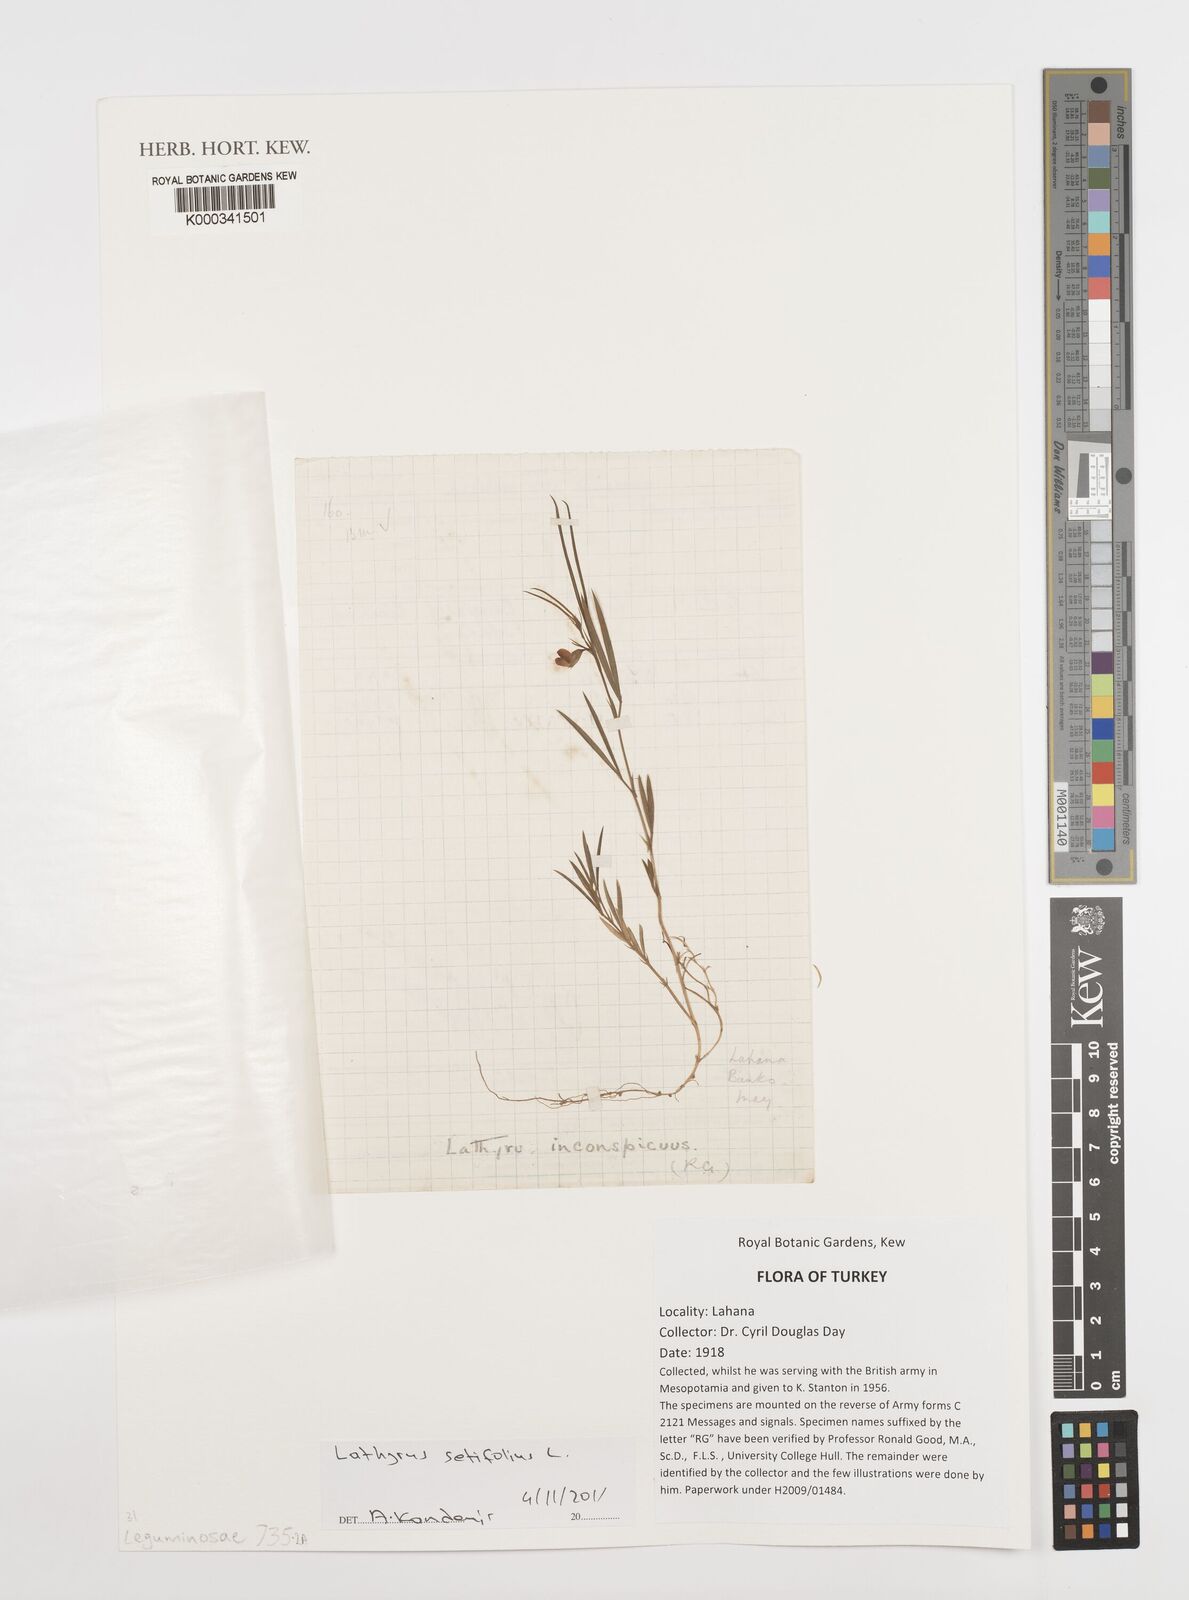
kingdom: Plantae
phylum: Tracheophyta
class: Magnoliopsida
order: Fabales
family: Fabaceae
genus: Lathyrus
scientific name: Lathyrus setifolius
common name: Brown vetchling
